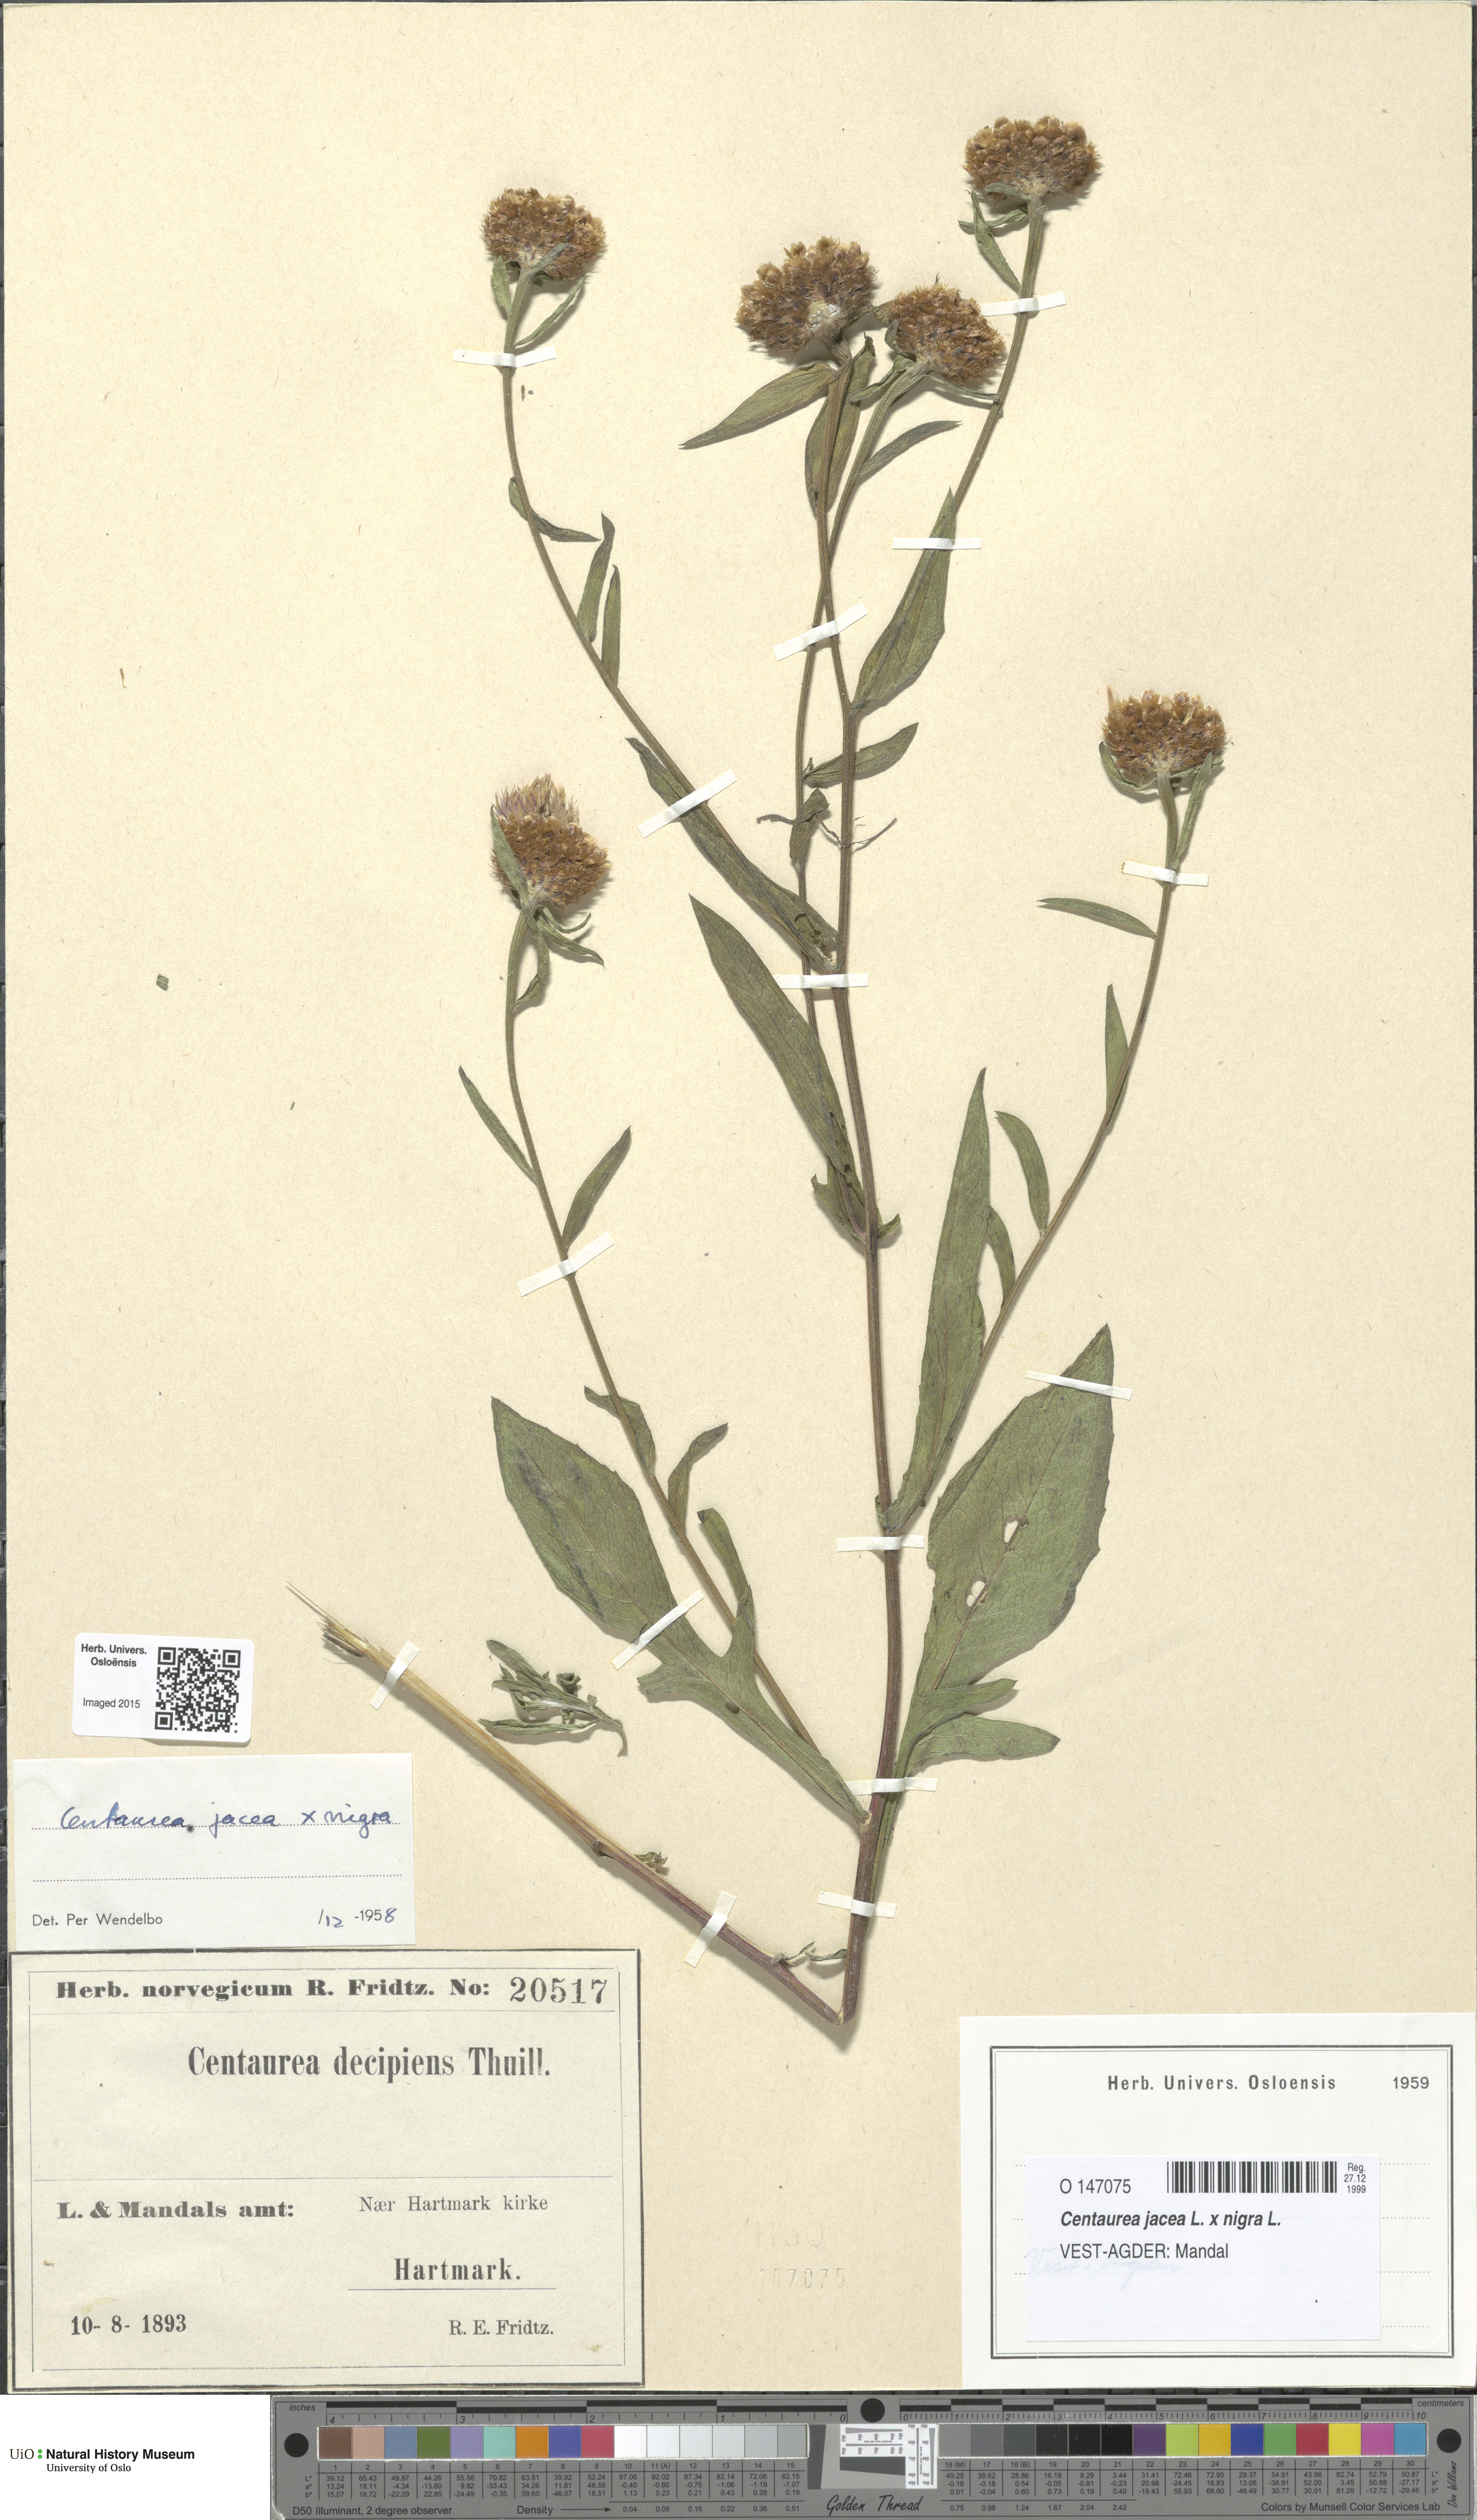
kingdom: Plantae
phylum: Tracheophyta
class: Magnoliopsida
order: Asterales
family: Asteraceae
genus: Centaurea
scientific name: Centaurea
